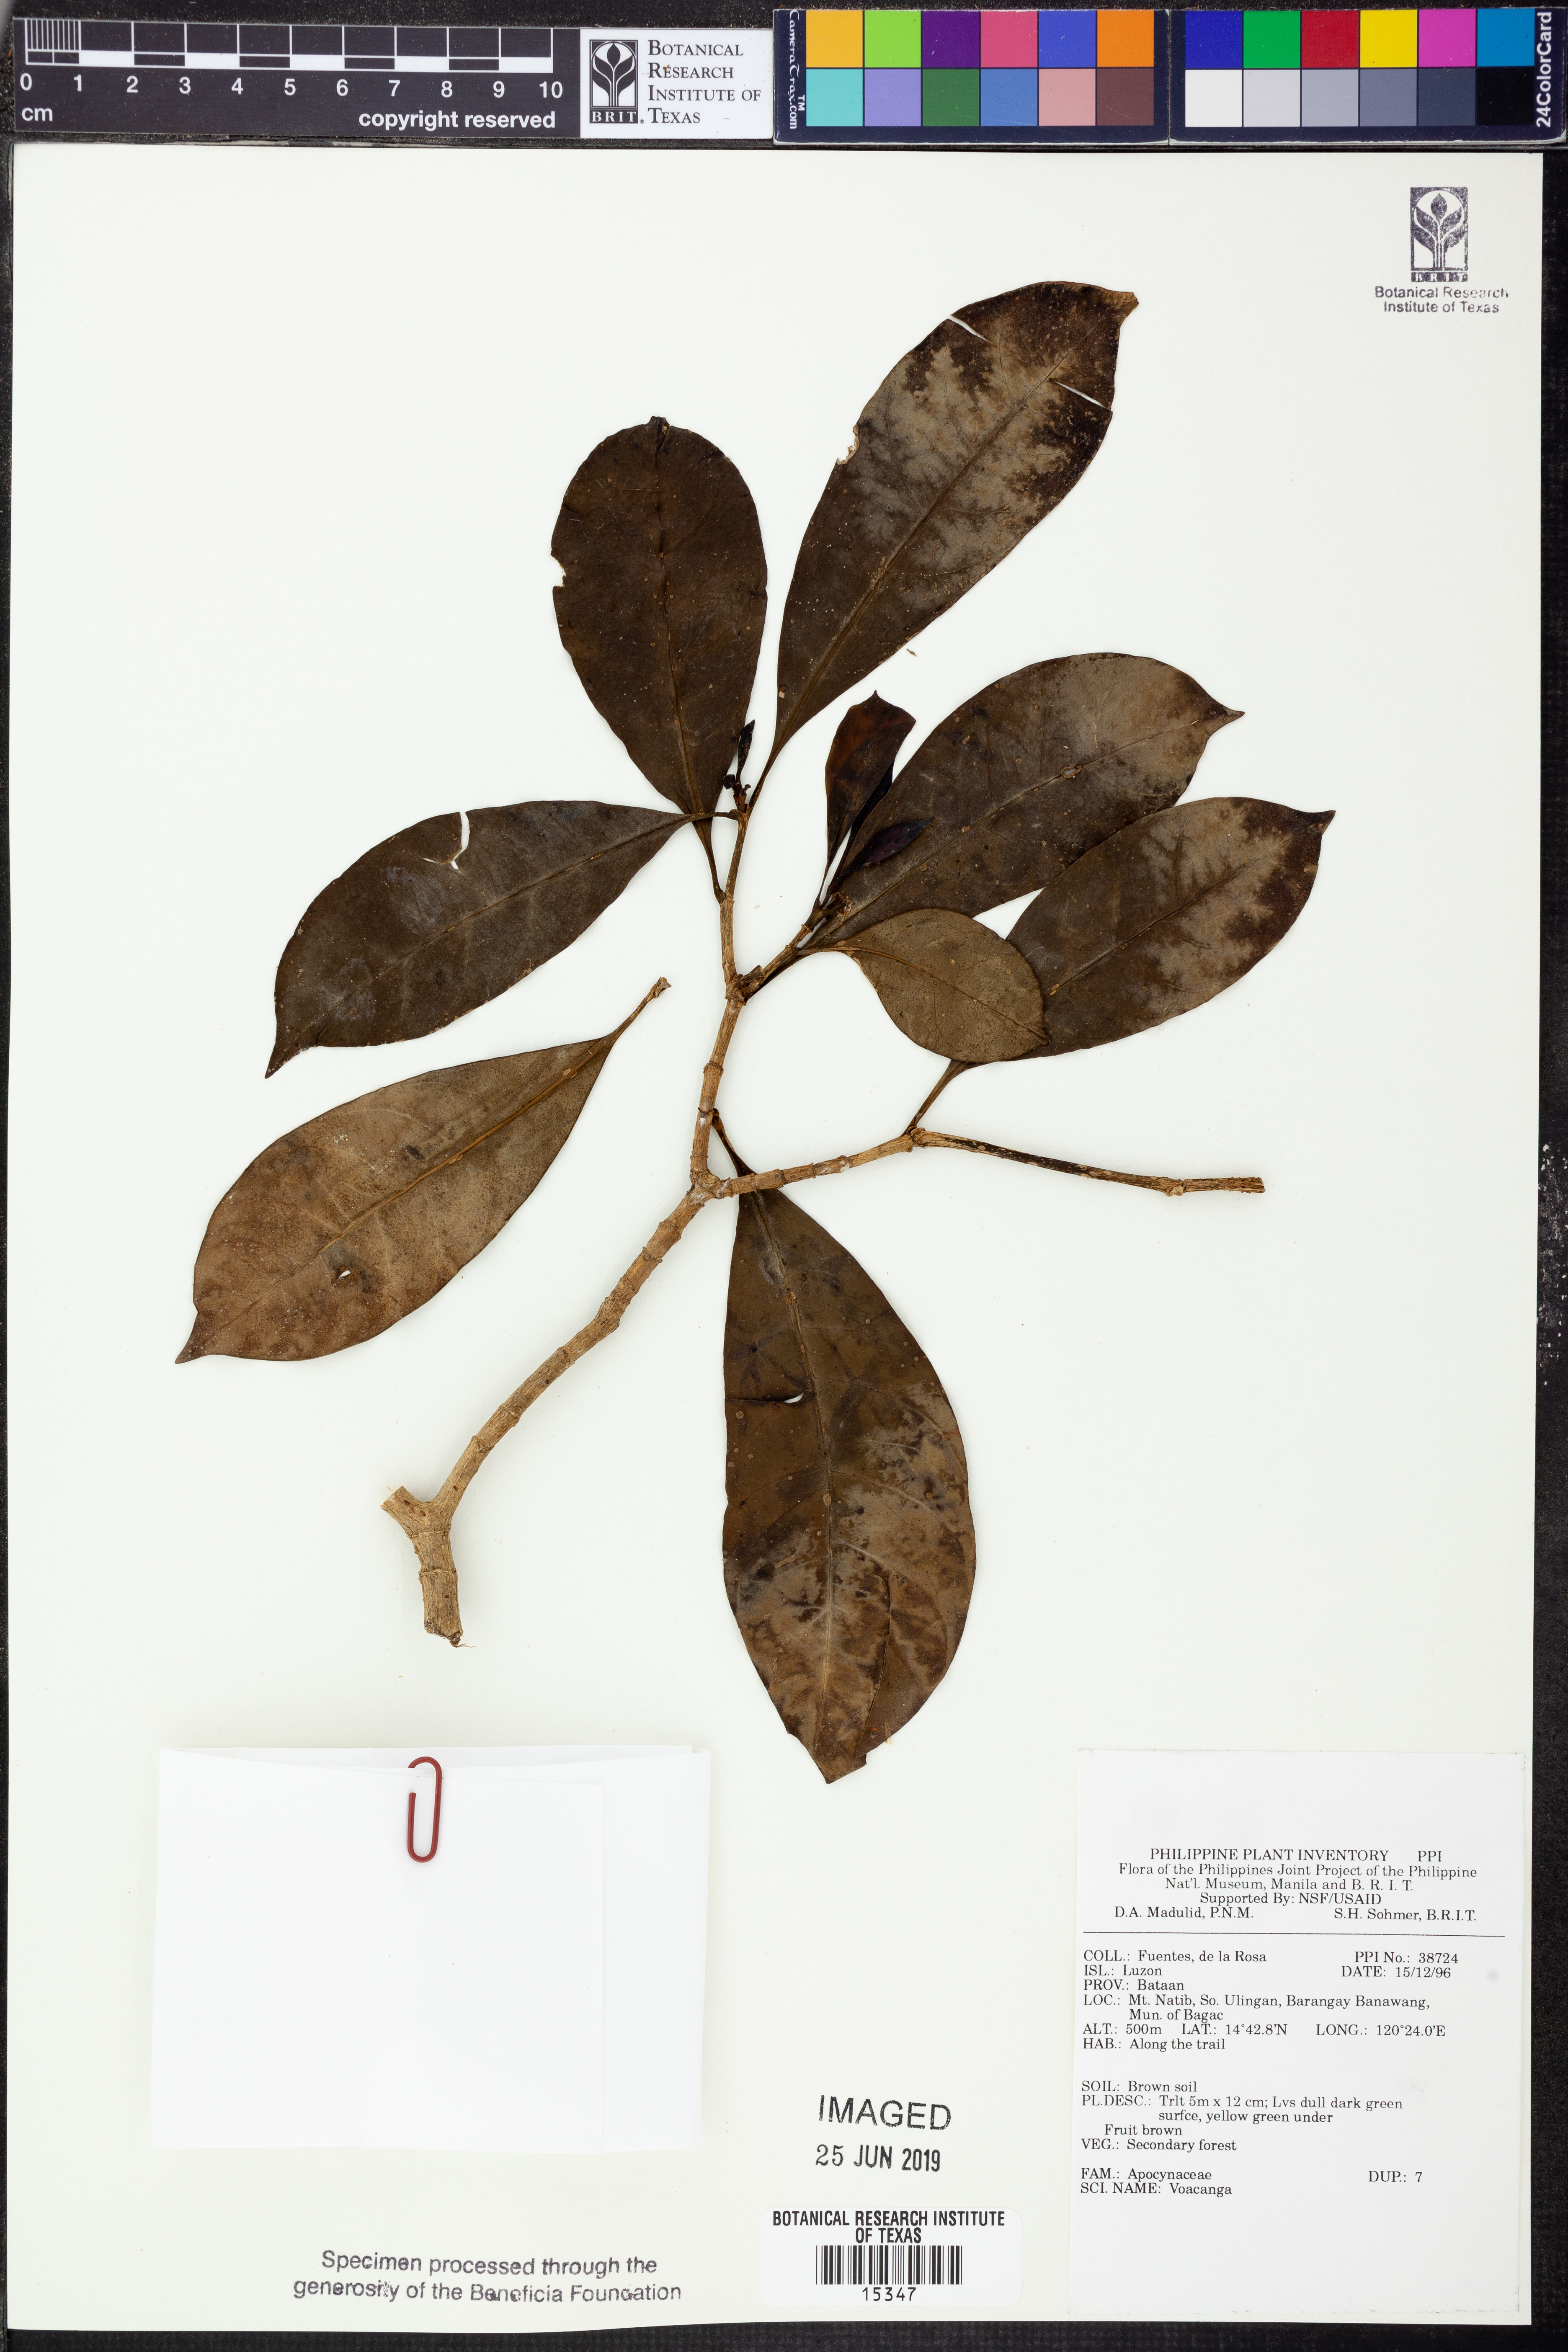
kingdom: Plantae
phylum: Tracheophyta
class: Magnoliopsida
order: Gentianales
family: Apocynaceae
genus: Voacanga
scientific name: Voacanga
